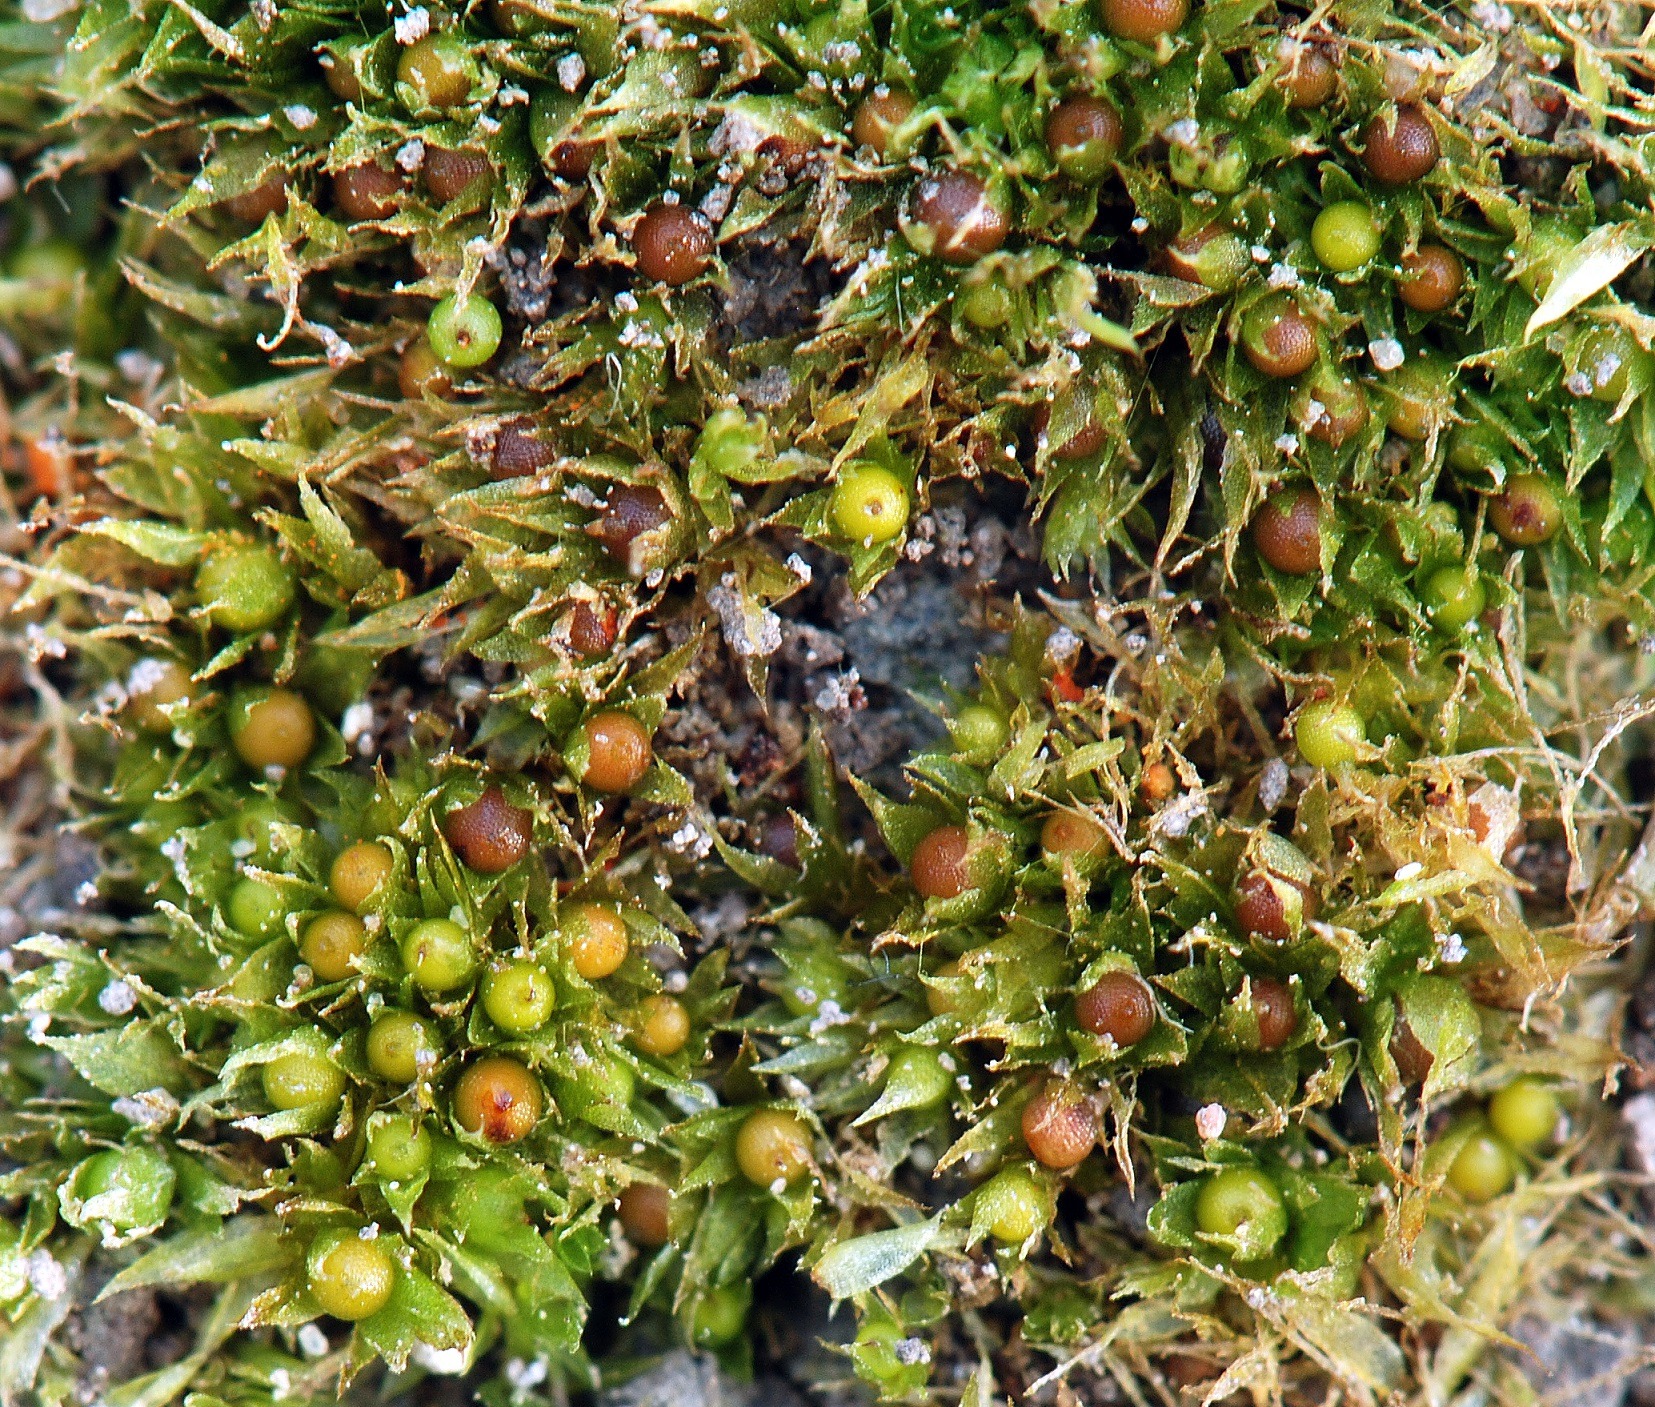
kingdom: Plantae
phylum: Bryophyta
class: Bryopsida
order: Funariales
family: Funariaceae
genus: Physcomitrium
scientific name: Physcomitrium patens
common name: Bulet muddermos
